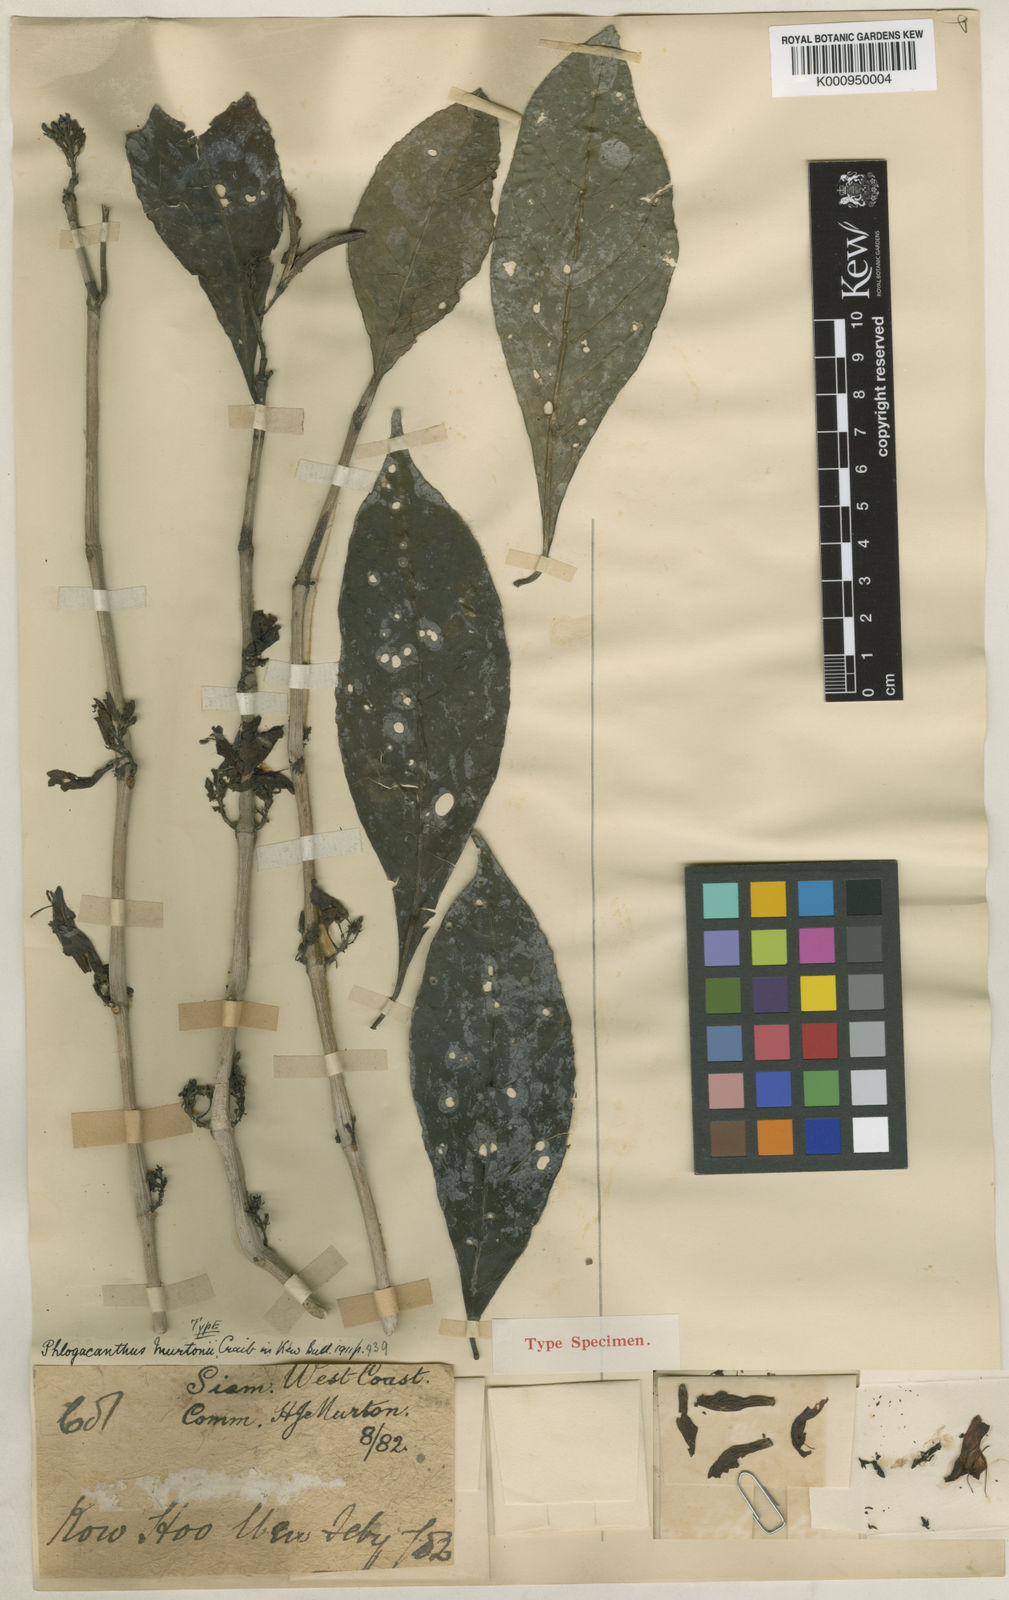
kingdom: Plantae
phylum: Tracheophyta
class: Magnoliopsida
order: Lamiales
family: Acanthaceae
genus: Phlogacanthus
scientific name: Phlogacanthus murtonii
